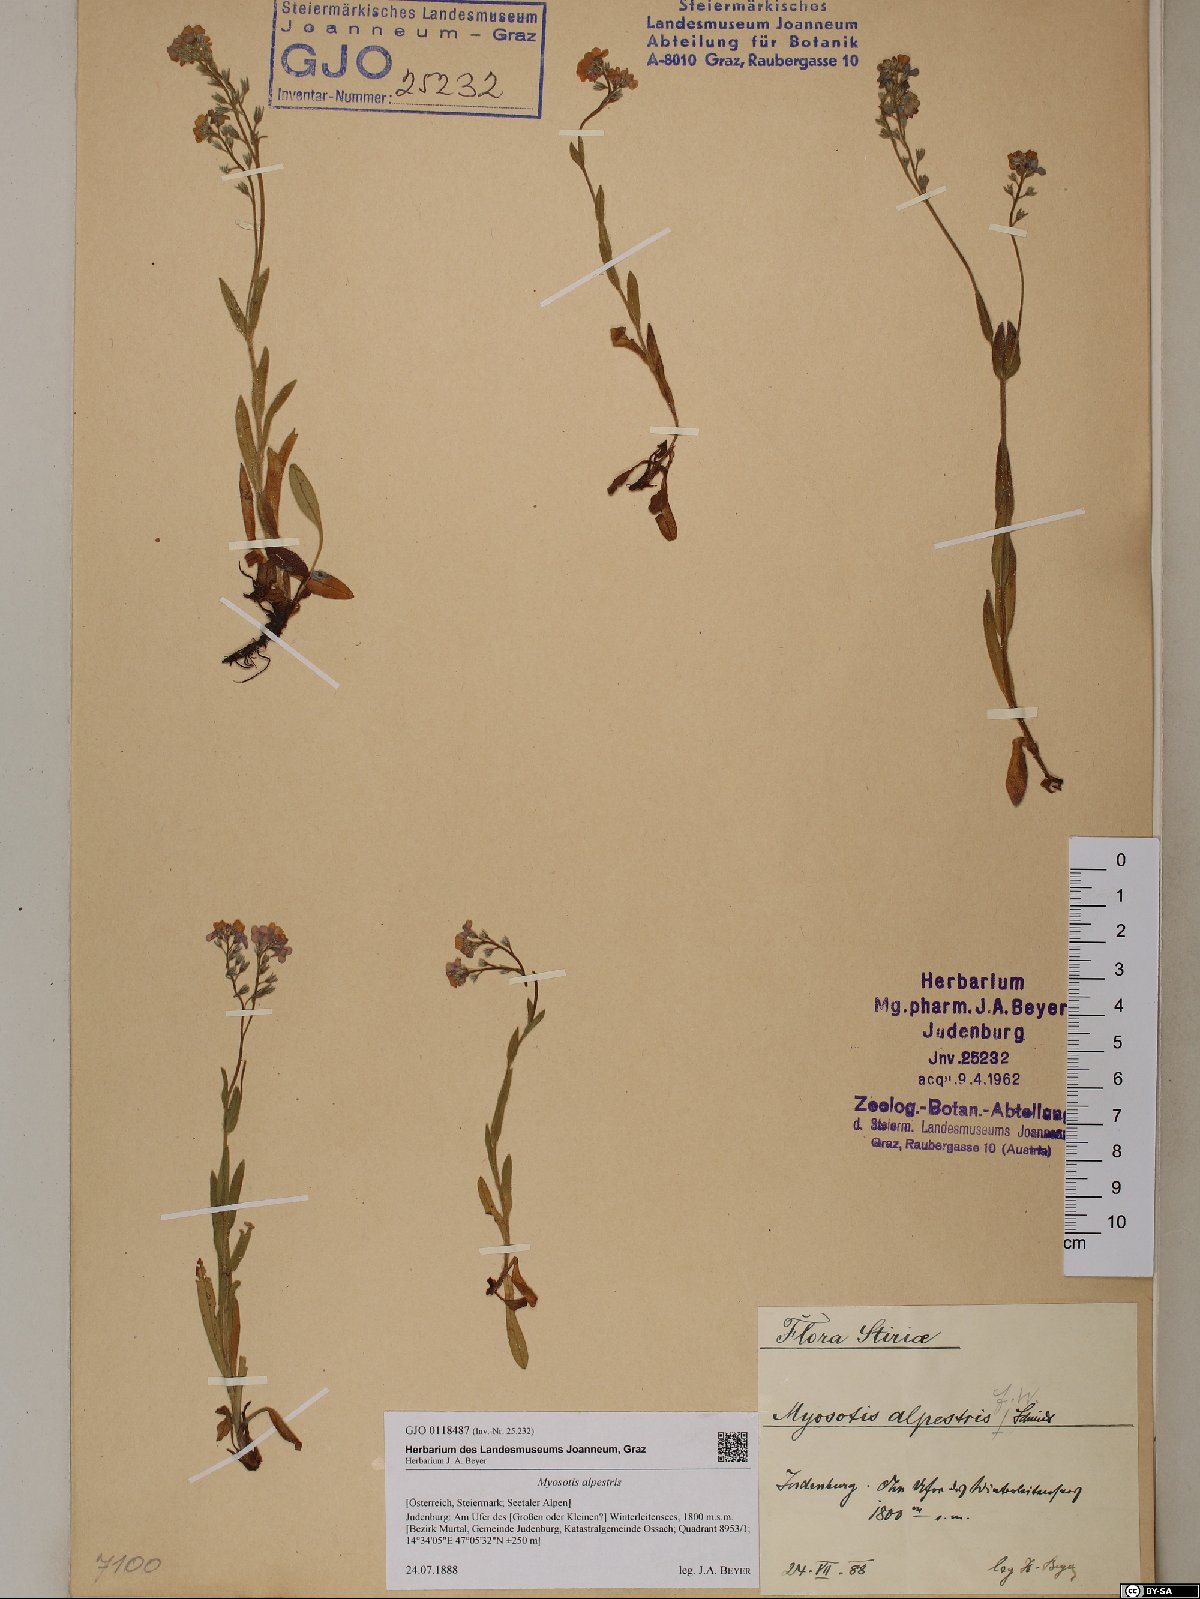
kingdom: Plantae
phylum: Tracheophyta
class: Magnoliopsida
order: Boraginales
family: Boraginaceae
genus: Myosotis
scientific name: Myosotis alpestris
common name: Alpine forget-me-not
